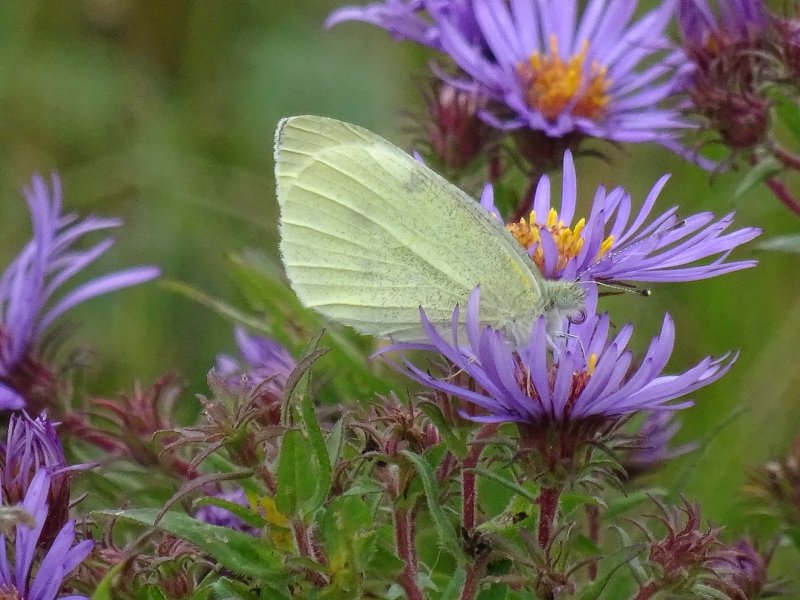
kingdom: Animalia
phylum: Arthropoda
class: Insecta
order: Lepidoptera
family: Pieridae
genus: Pieris
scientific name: Pieris rapae
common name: Cabbage White
